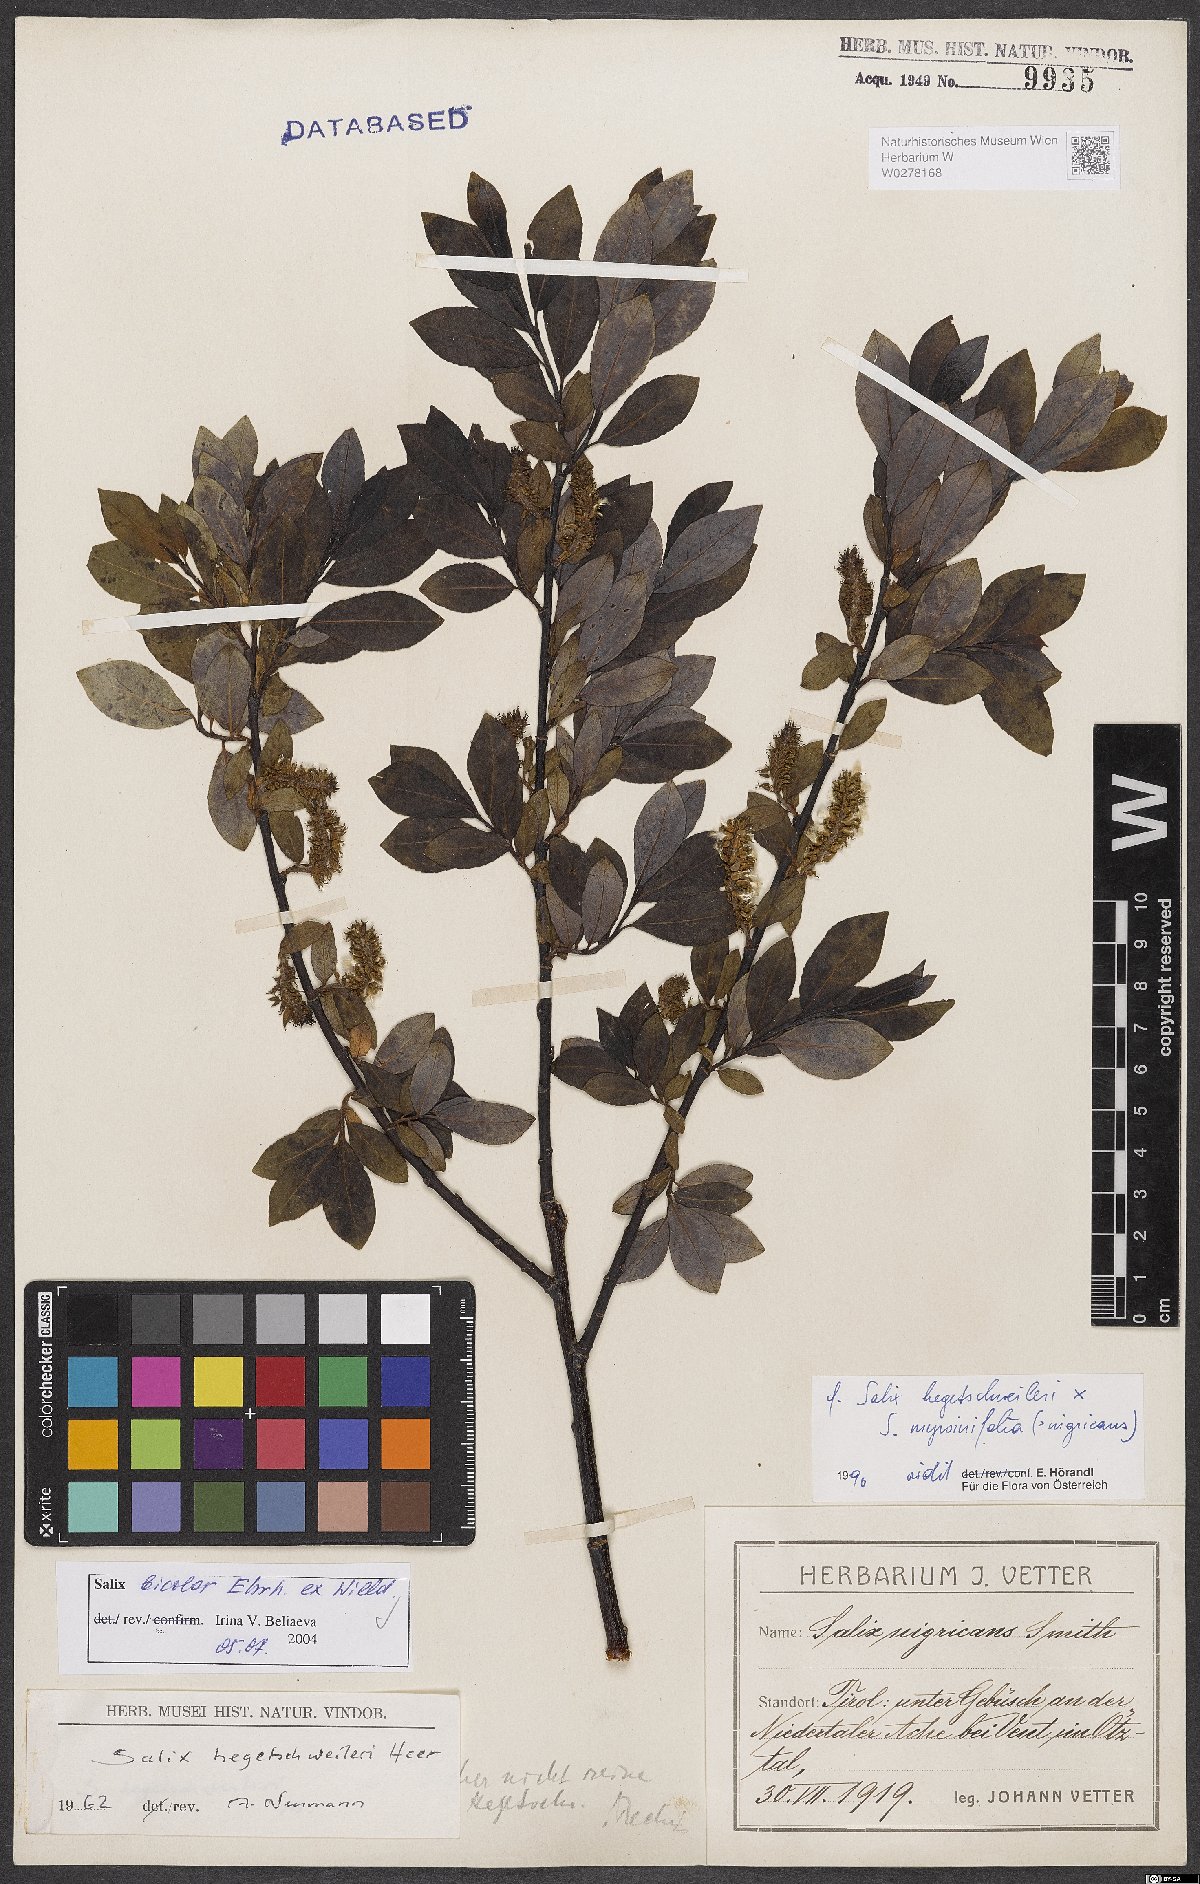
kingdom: Plantae
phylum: Tracheophyta
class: Magnoliopsida
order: Malpighiales
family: Salicaceae
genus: Salix
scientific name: Salix bicolor
